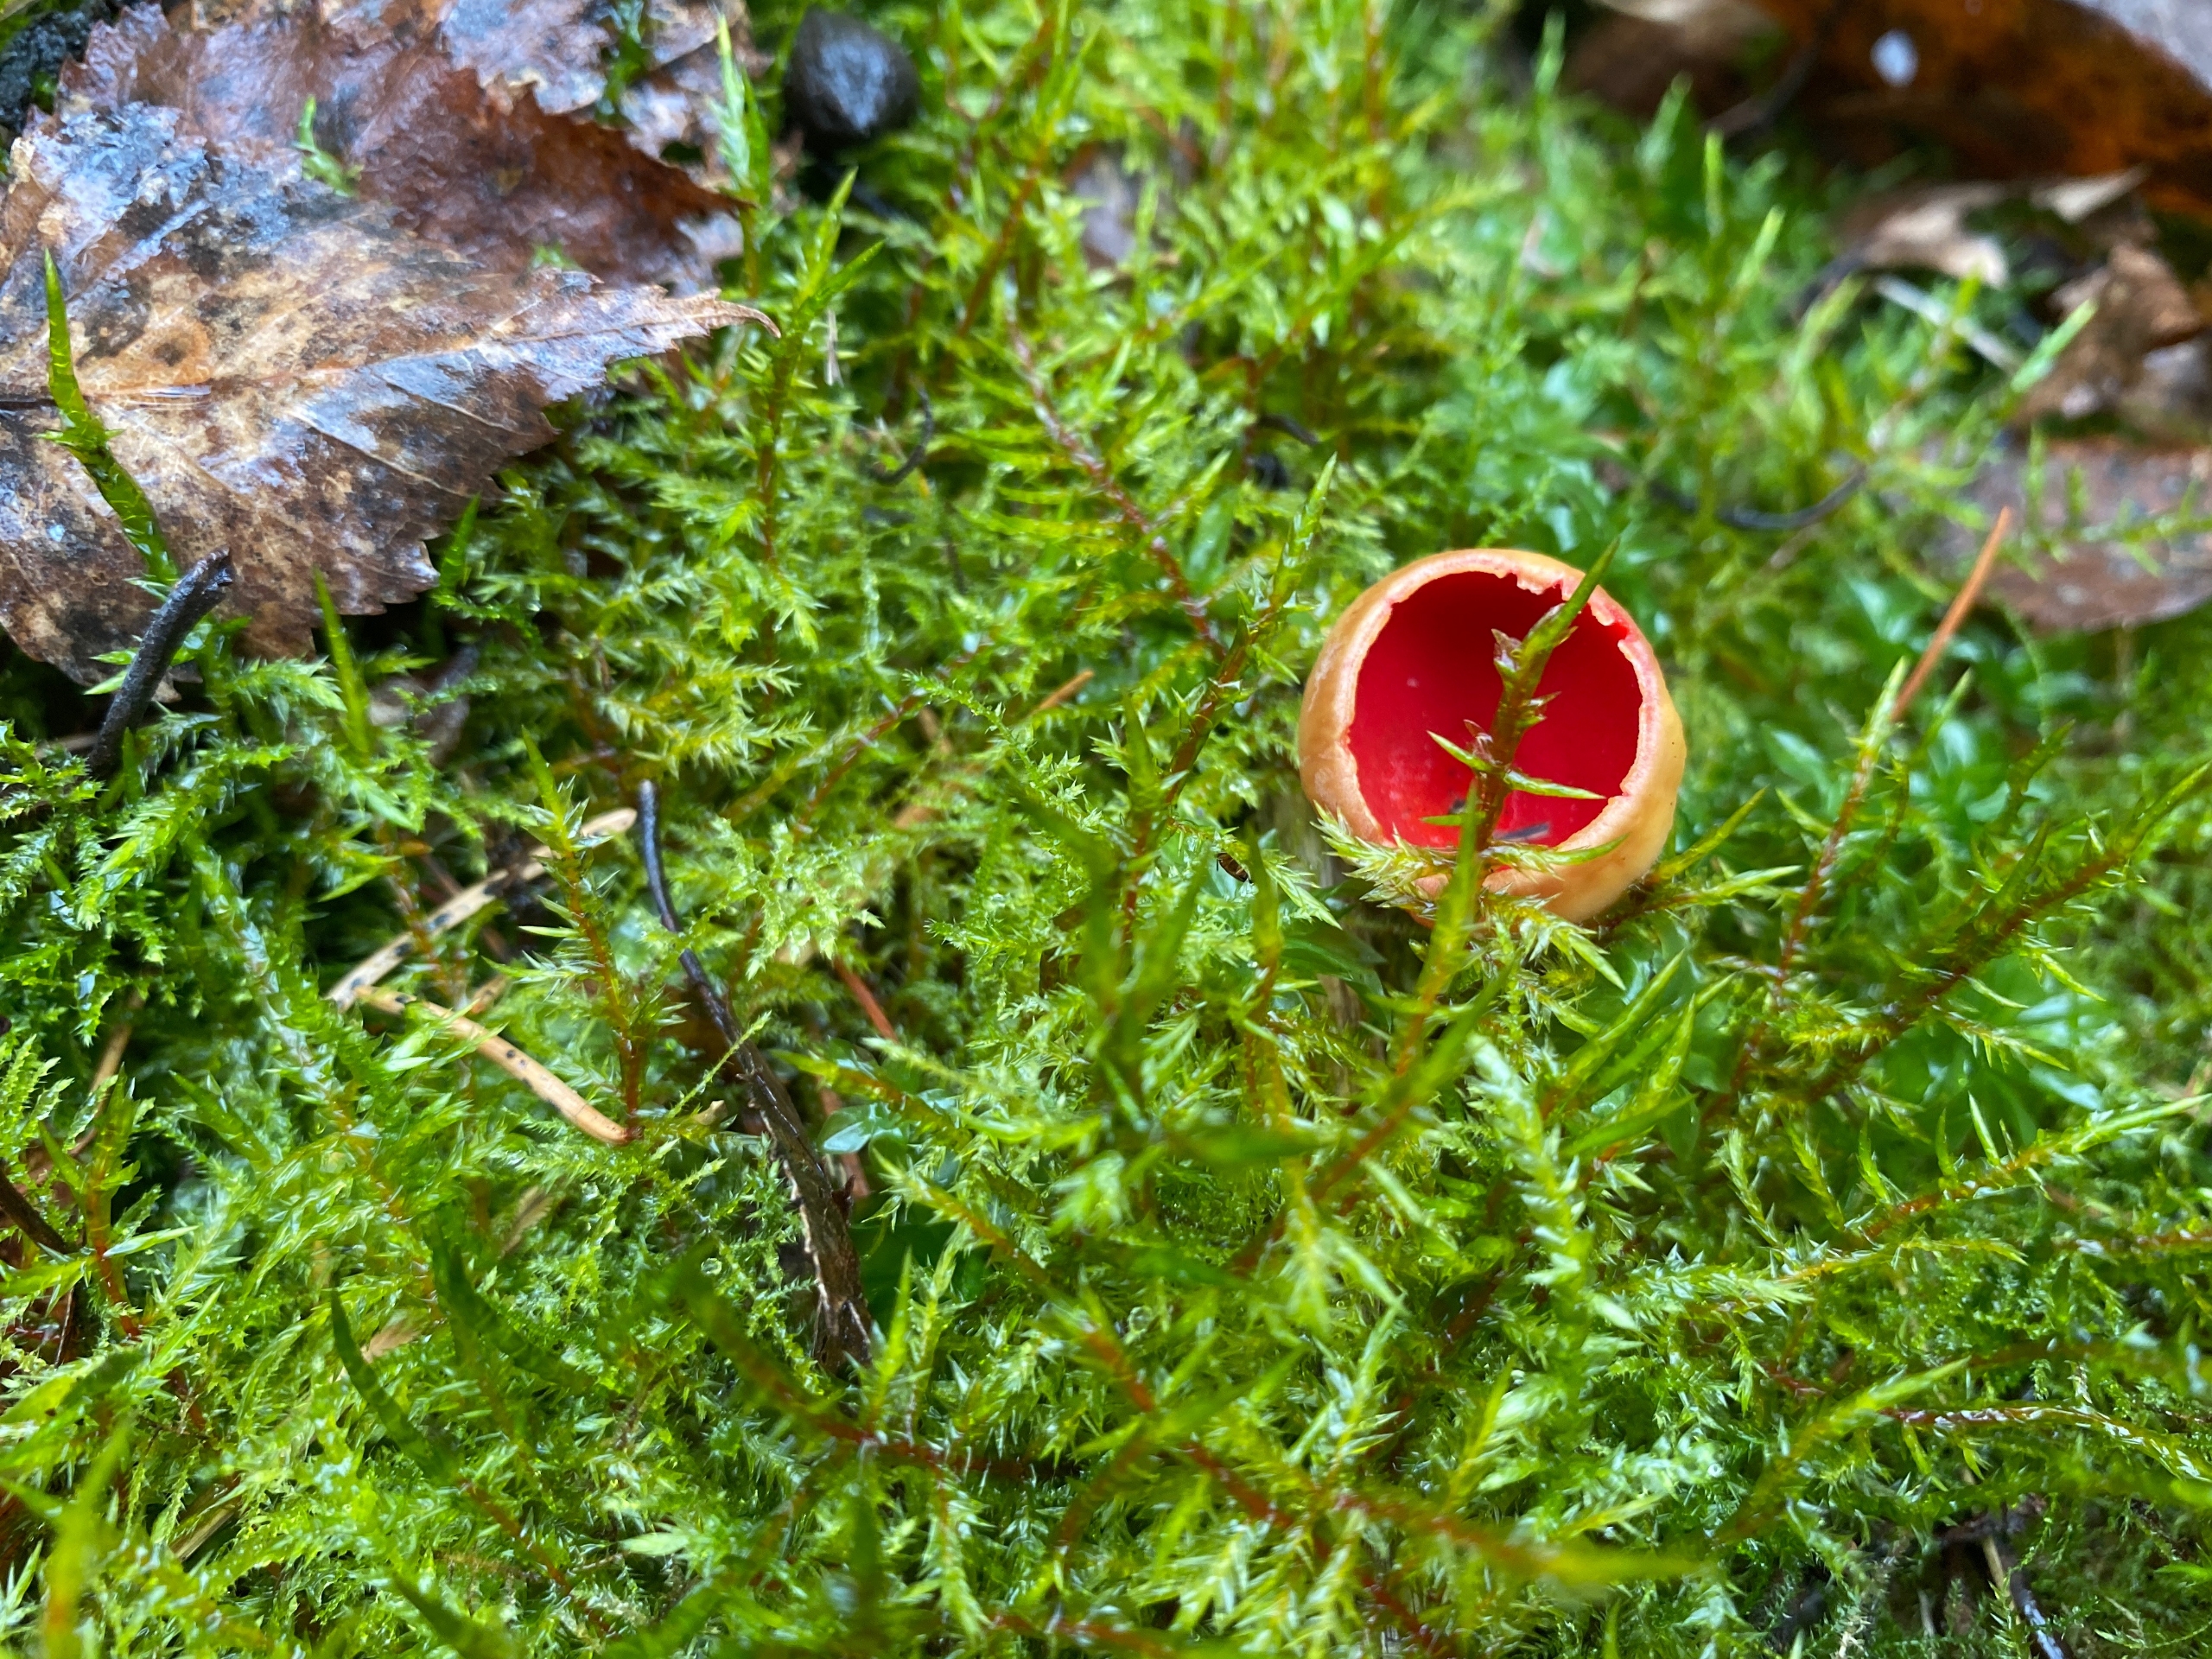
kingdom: Plantae
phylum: Bryophyta
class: Bryopsida
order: Hypnales
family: Pylaisiaceae
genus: Calliergonella
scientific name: Calliergonella cuspidata
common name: Spids spydmos
